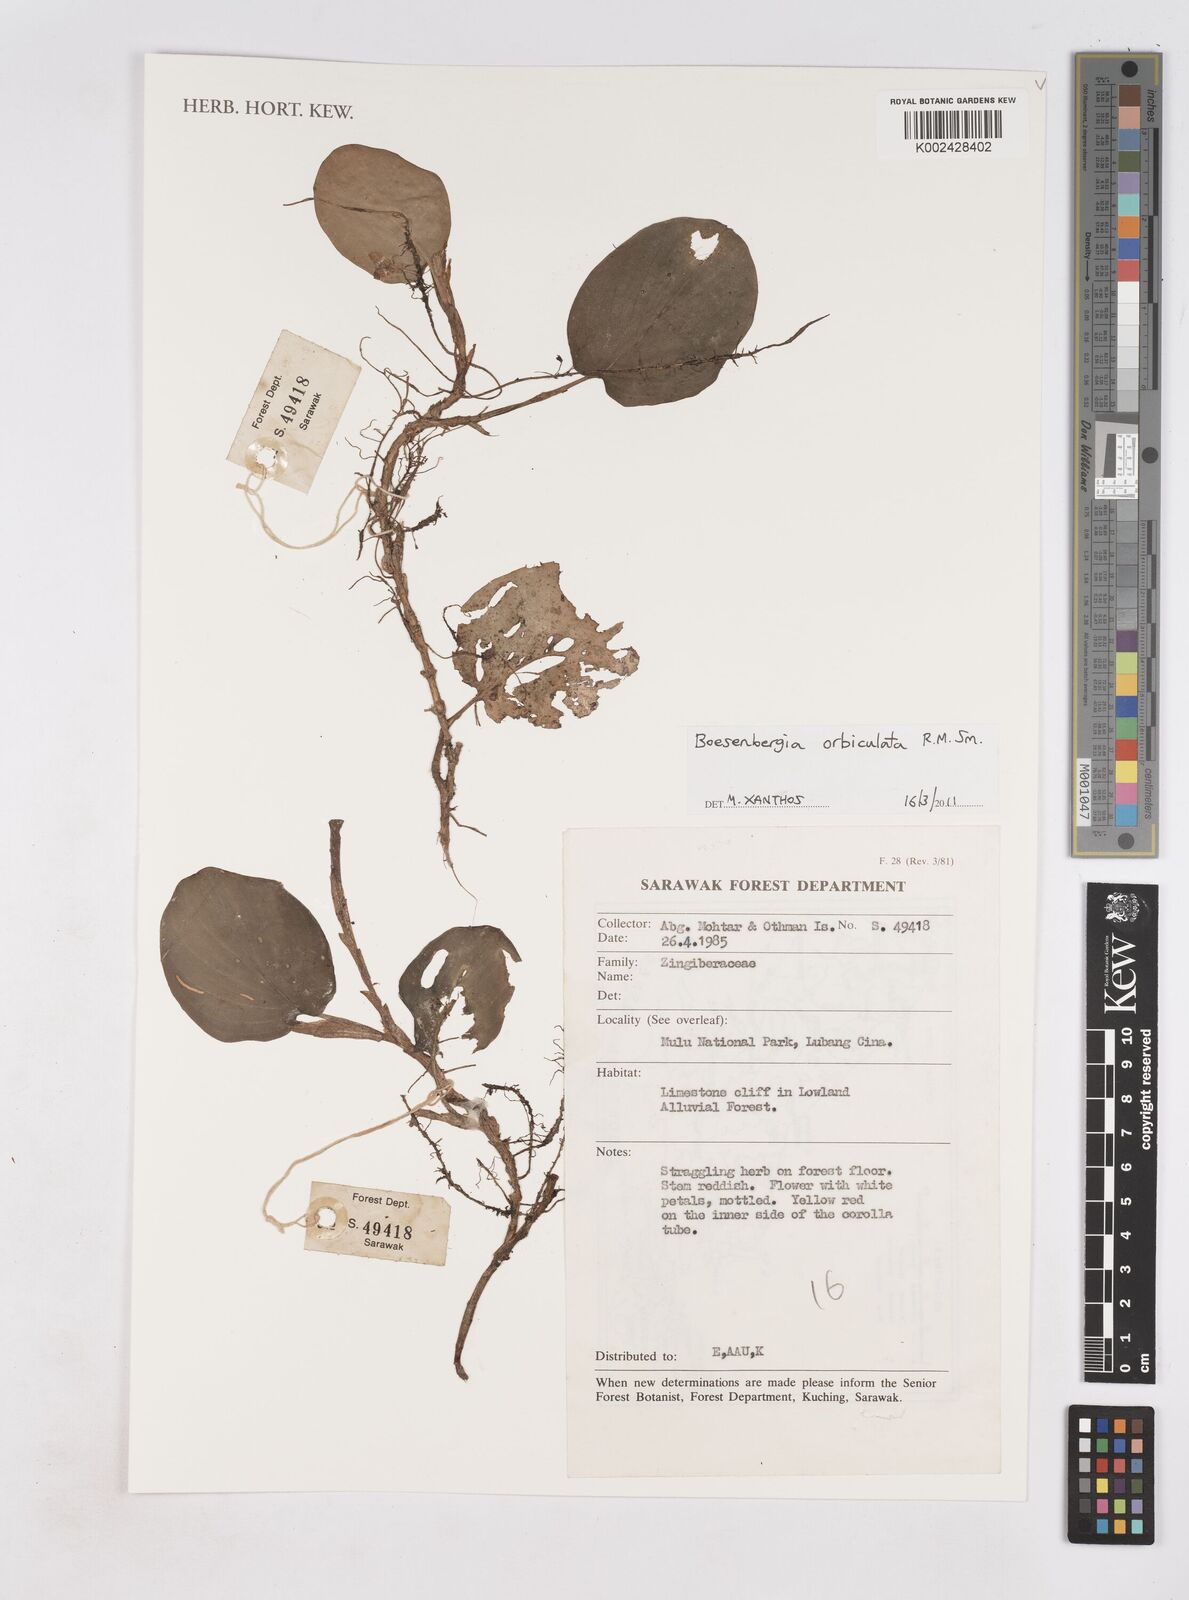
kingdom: Plantae
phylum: Tracheophyta
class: Liliopsida
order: Zingiberales
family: Zingiberaceae
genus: Boesenbergia
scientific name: Boesenbergia orbiculata
